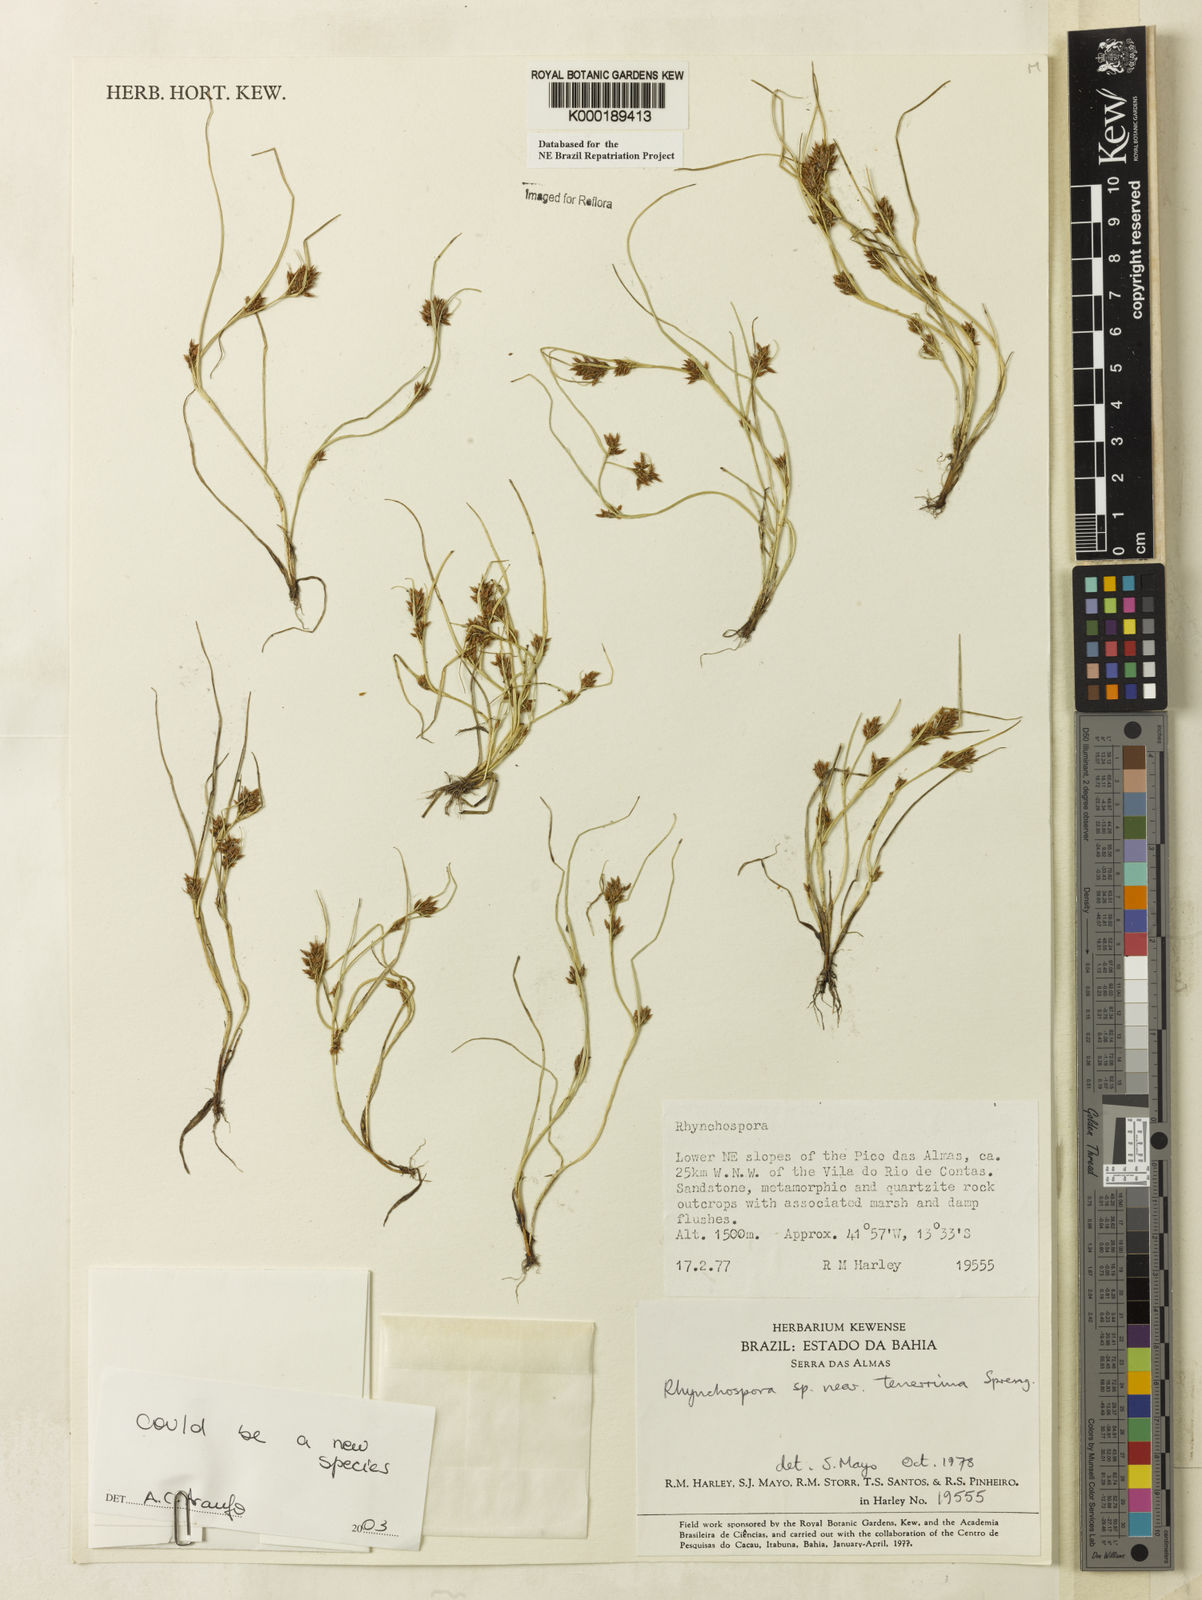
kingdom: Plantae
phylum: Tracheophyta
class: Liliopsida
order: Poales
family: Cyperaceae
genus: Rhynchospora
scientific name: Rhynchospora tenerrima
